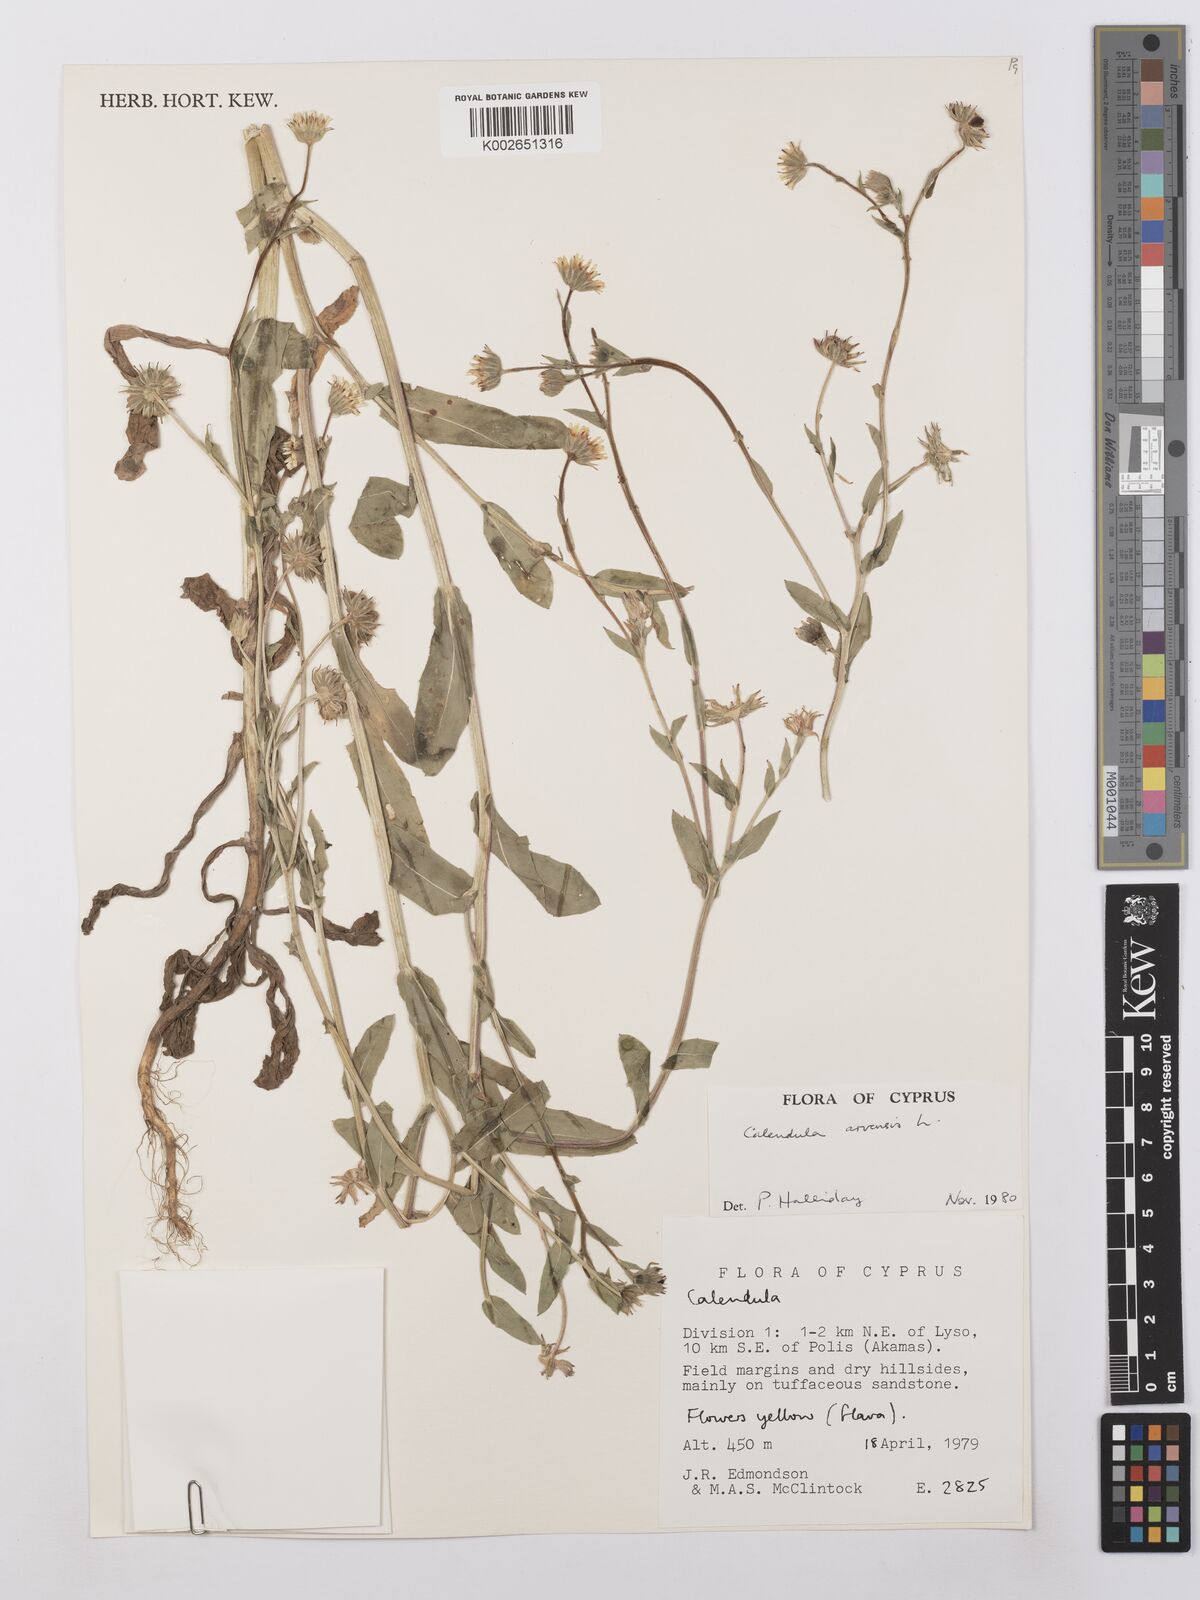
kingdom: Plantae
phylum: Tracheophyta
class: Magnoliopsida
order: Asterales
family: Asteraceae
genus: Calendula
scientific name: Calendula arvensis
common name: Field marigold
